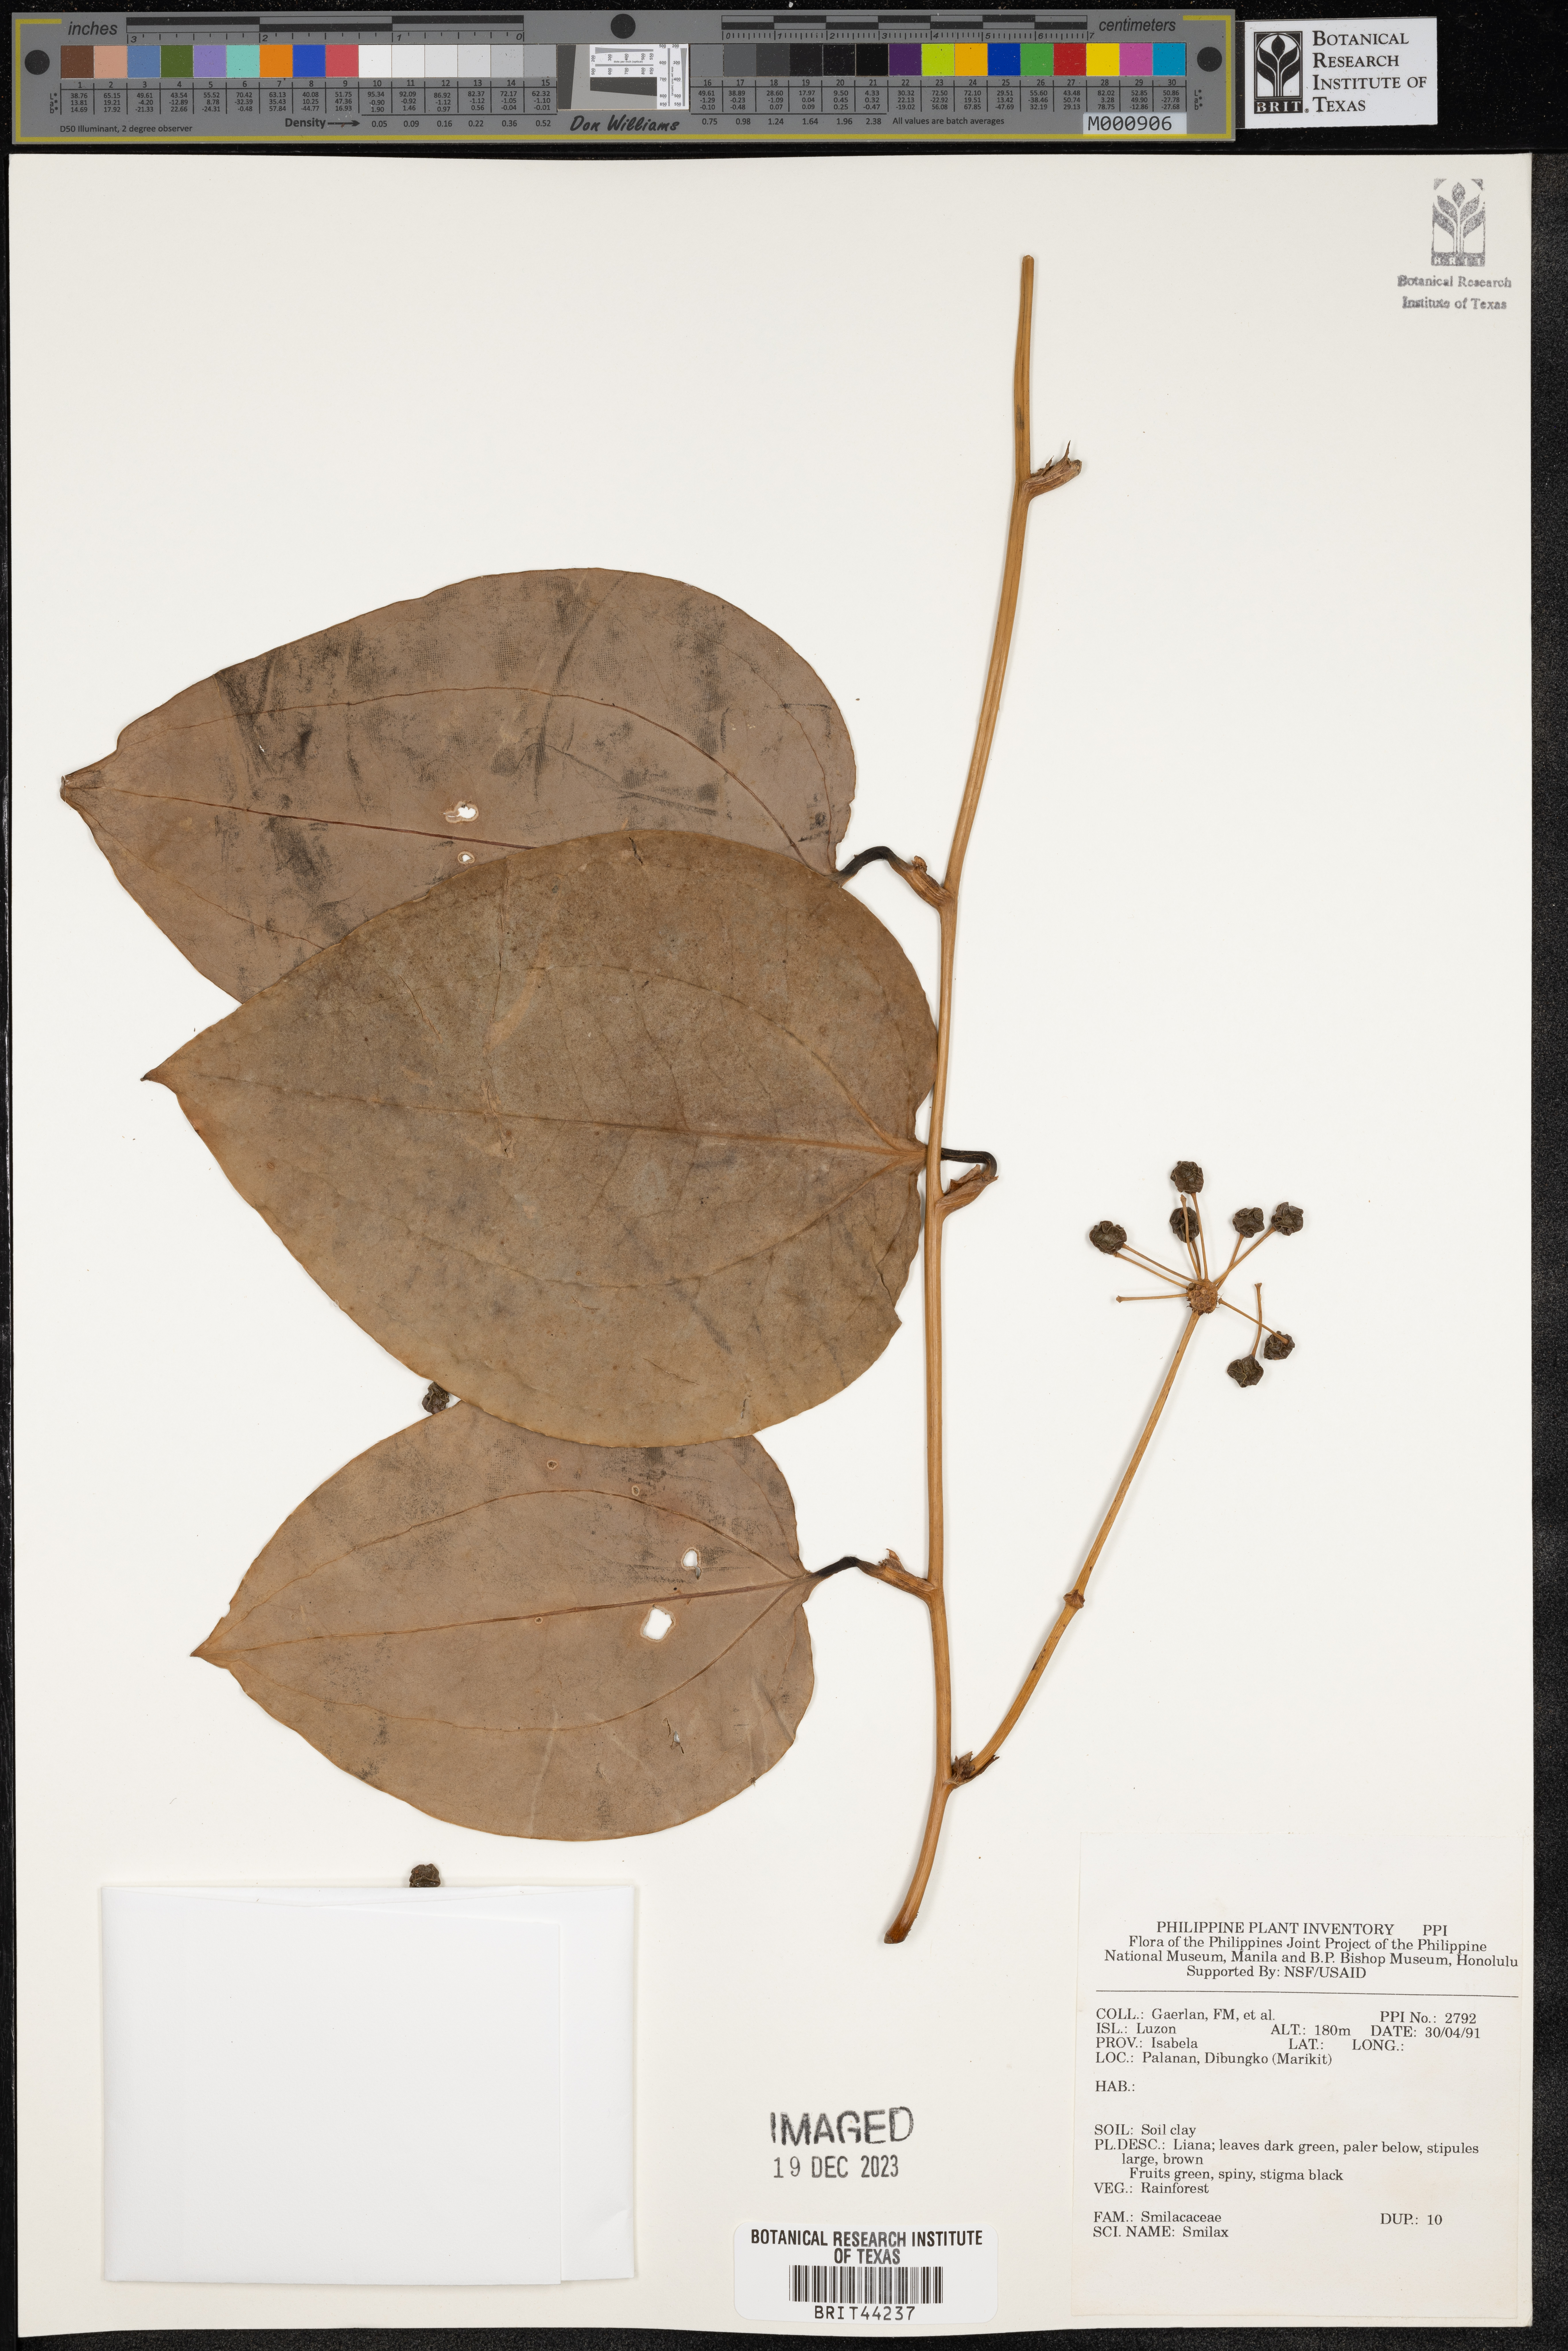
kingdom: Plantae
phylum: Tracheophyta
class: Liliopsida
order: Liliales
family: Smilacaceae
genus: Smilax
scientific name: Smilax
